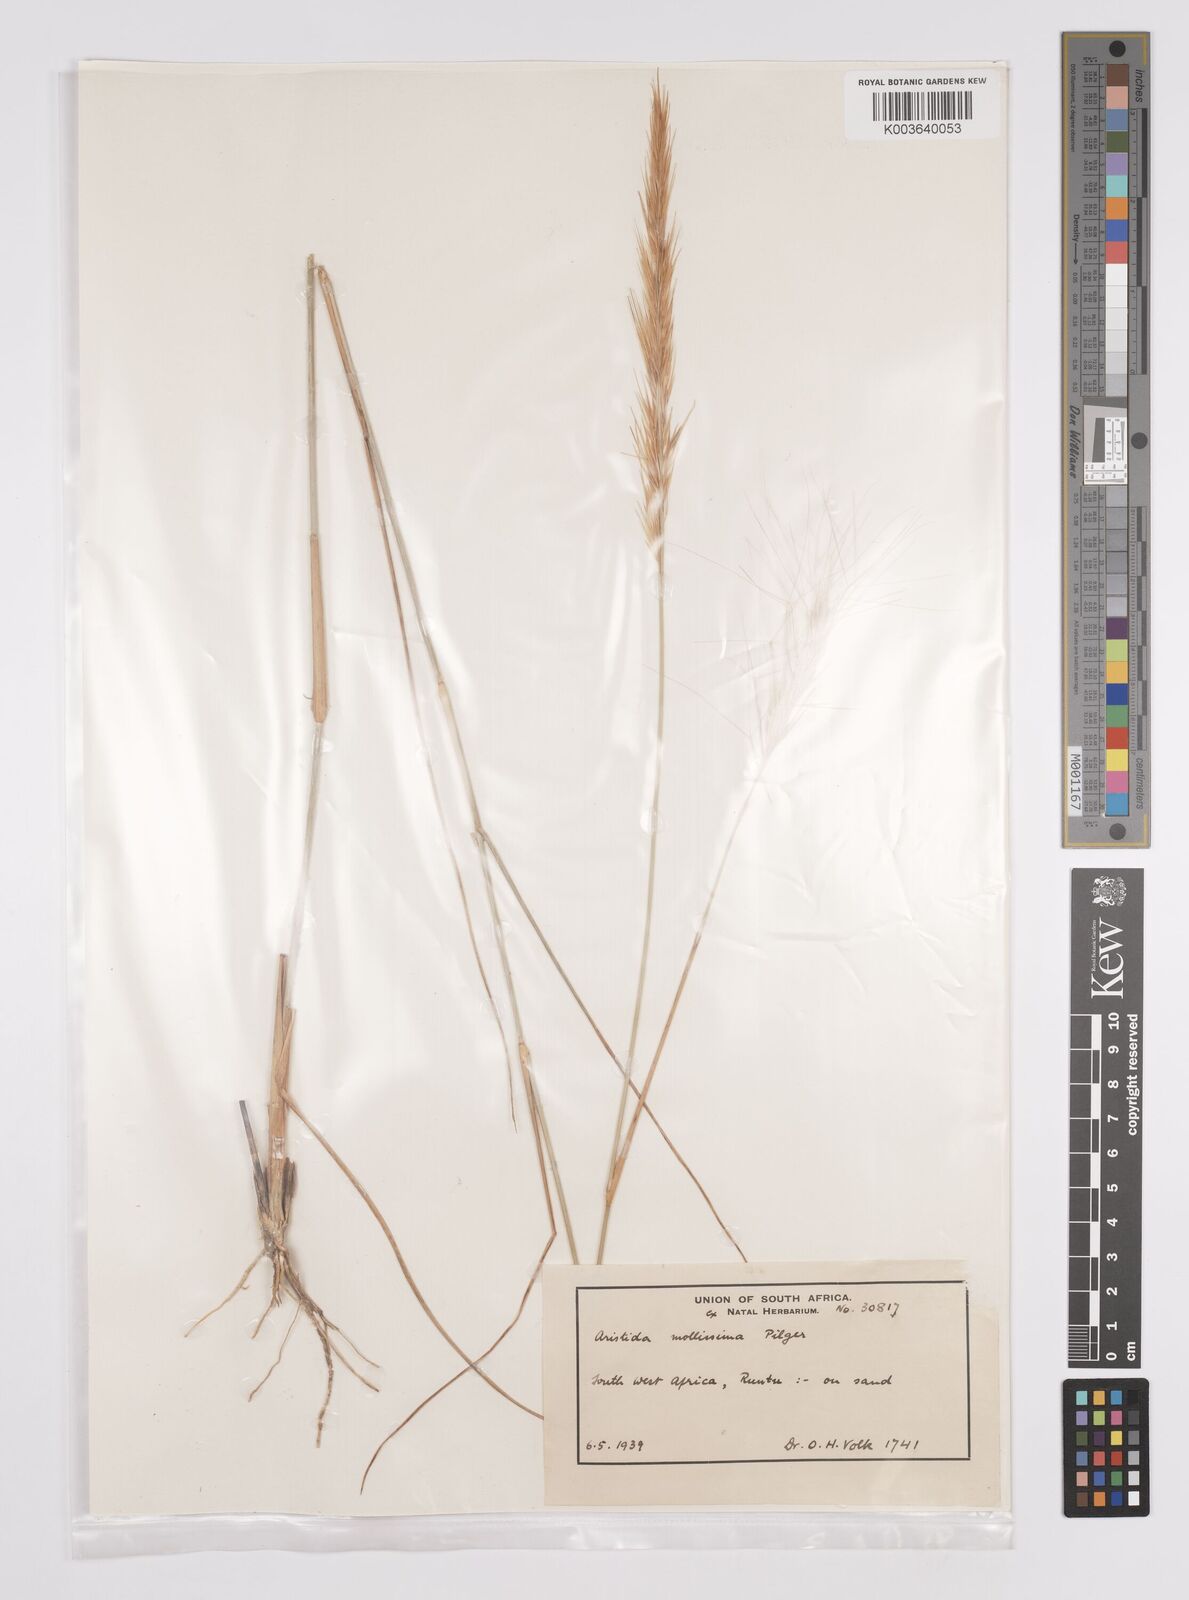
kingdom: Plantae
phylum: Tracheophyta
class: Liliopsida
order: Poales
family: Poaceae
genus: Aristida
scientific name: Aristida mollissima
